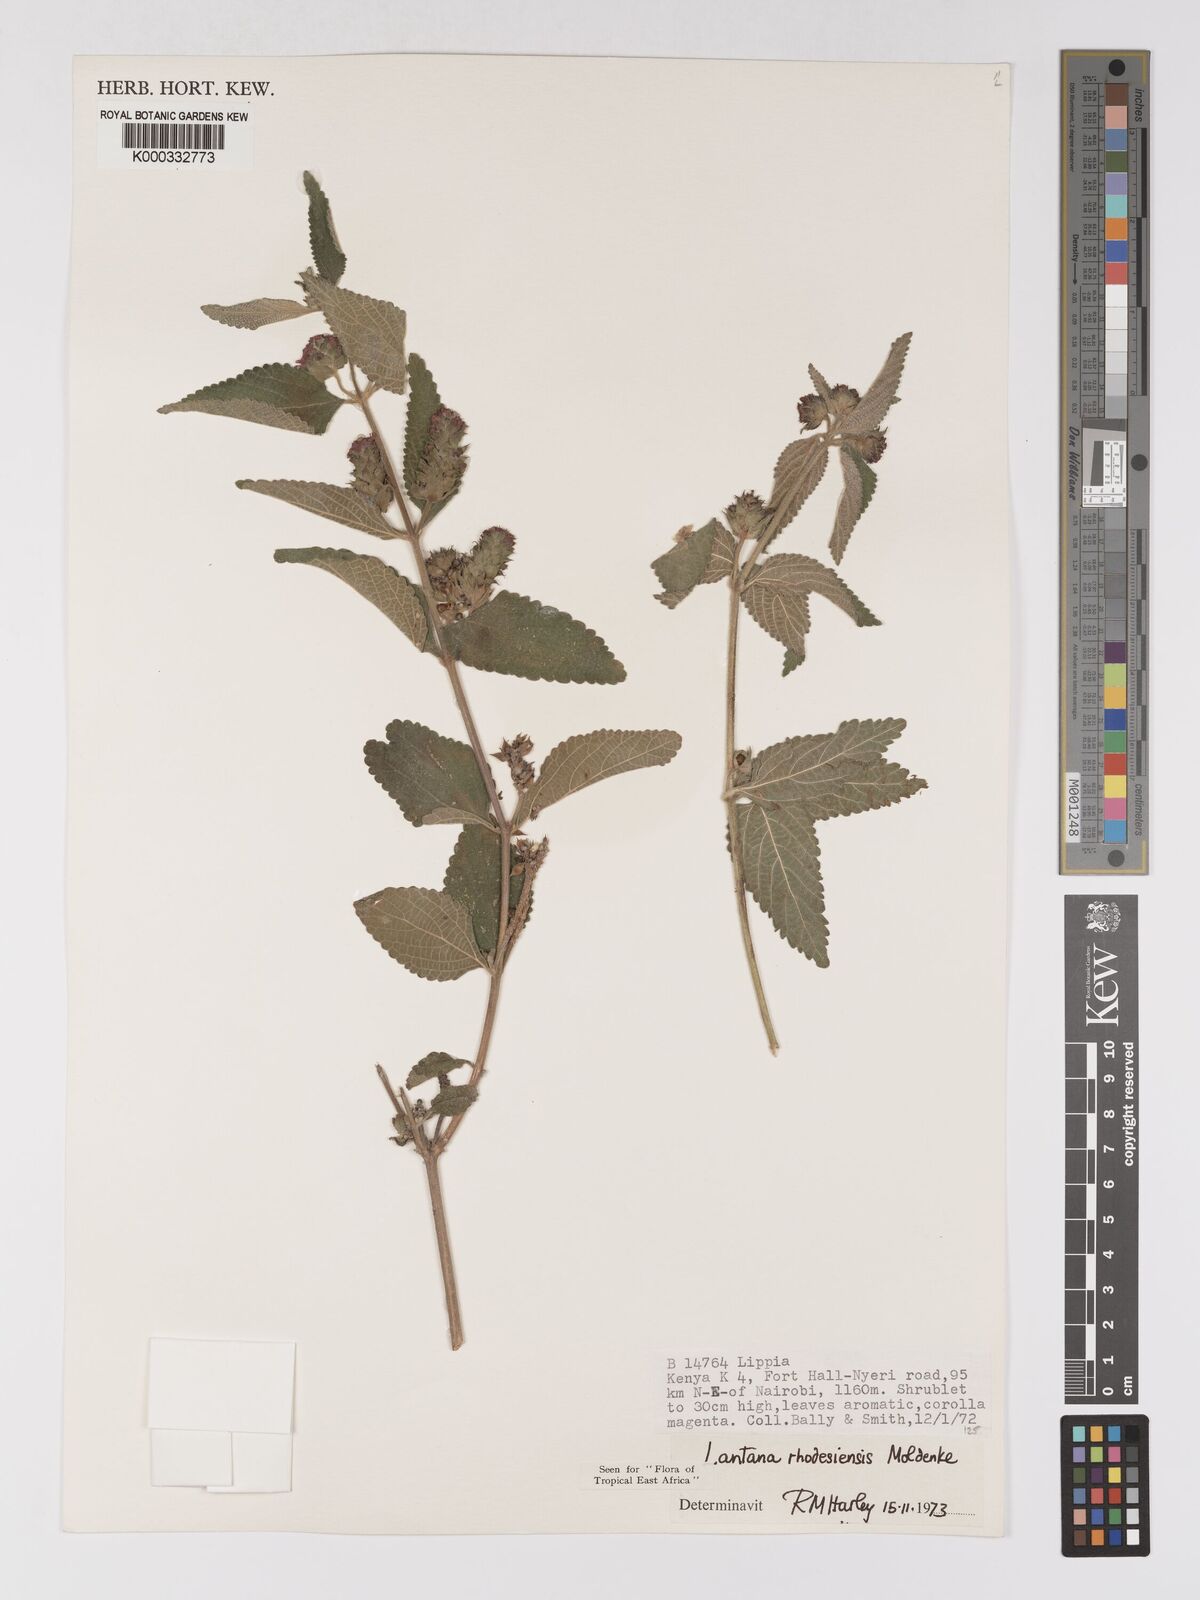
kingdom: Plantae
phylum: Tracheophyta
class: Magnoliopsida
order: Lamiales
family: Verbenaceae
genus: Lantana
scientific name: Lantana ukambensis
